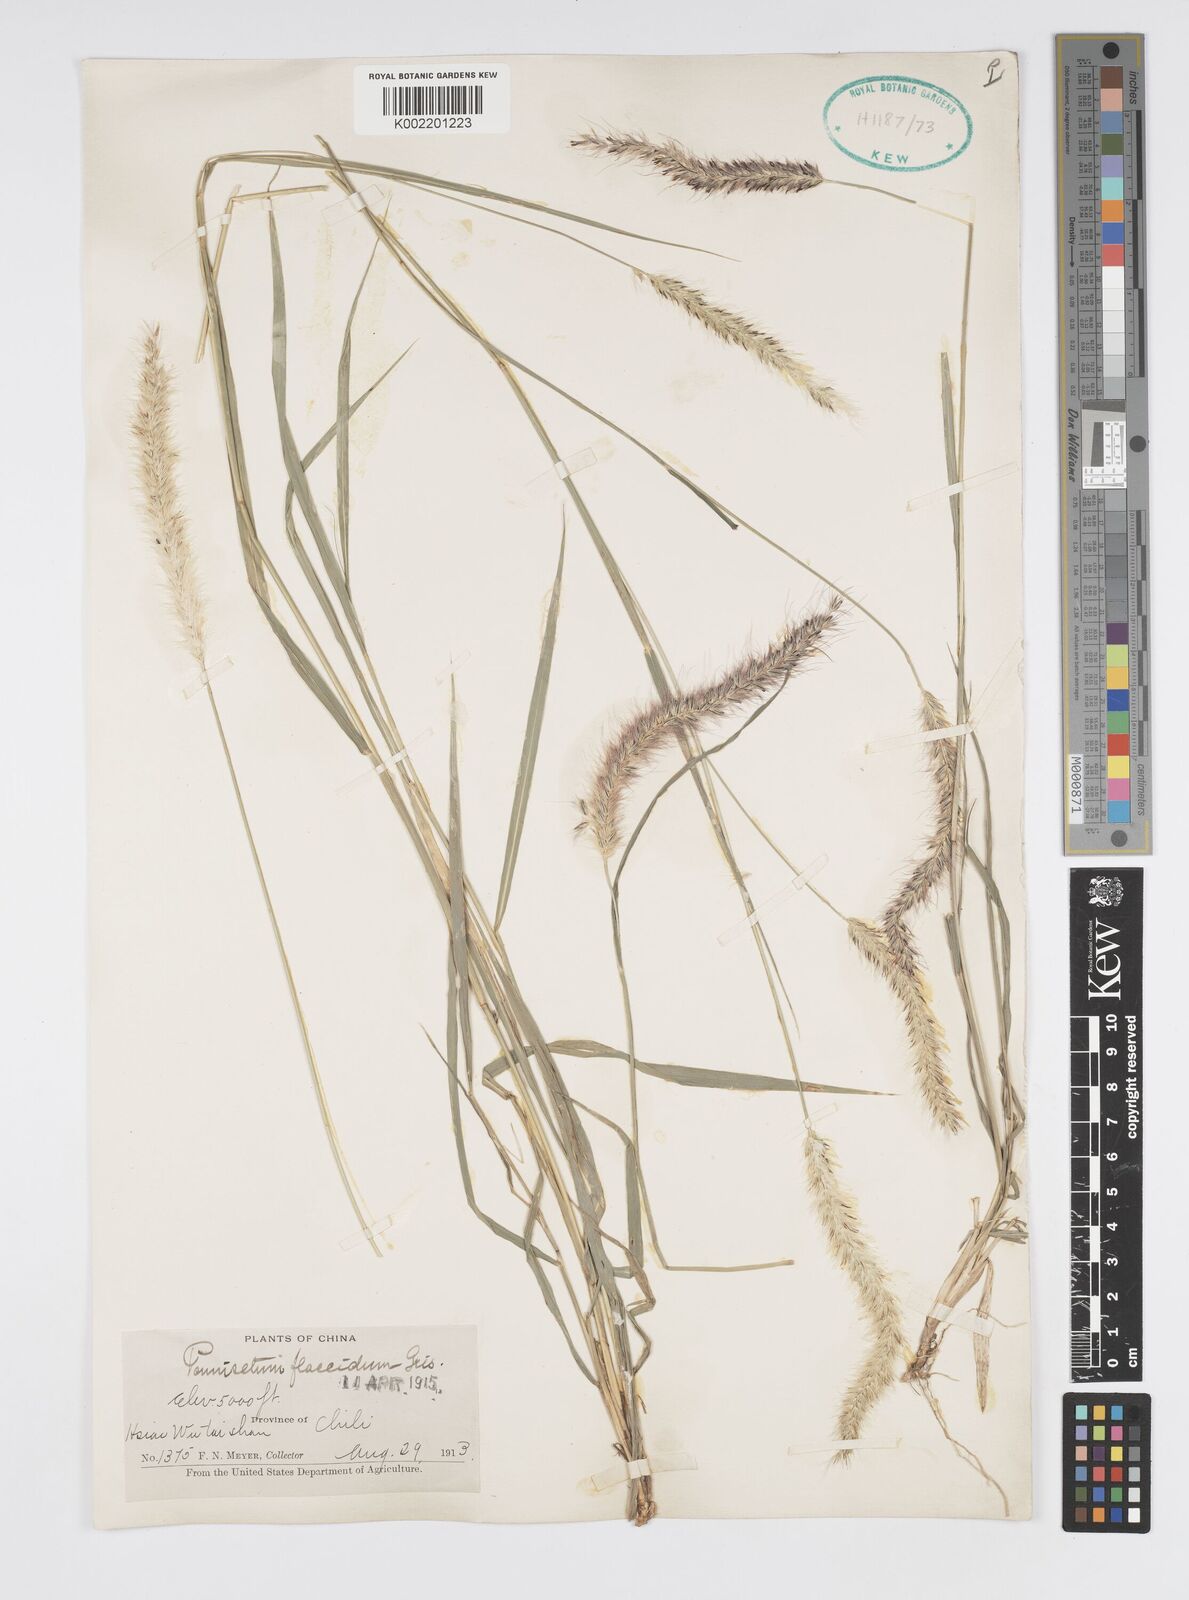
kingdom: Plantae
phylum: Tracheophyta
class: Liliopsida
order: Poales
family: Poaceae
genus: Cenchrus
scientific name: Cenchrus flaccidus
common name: Flaccid grass
